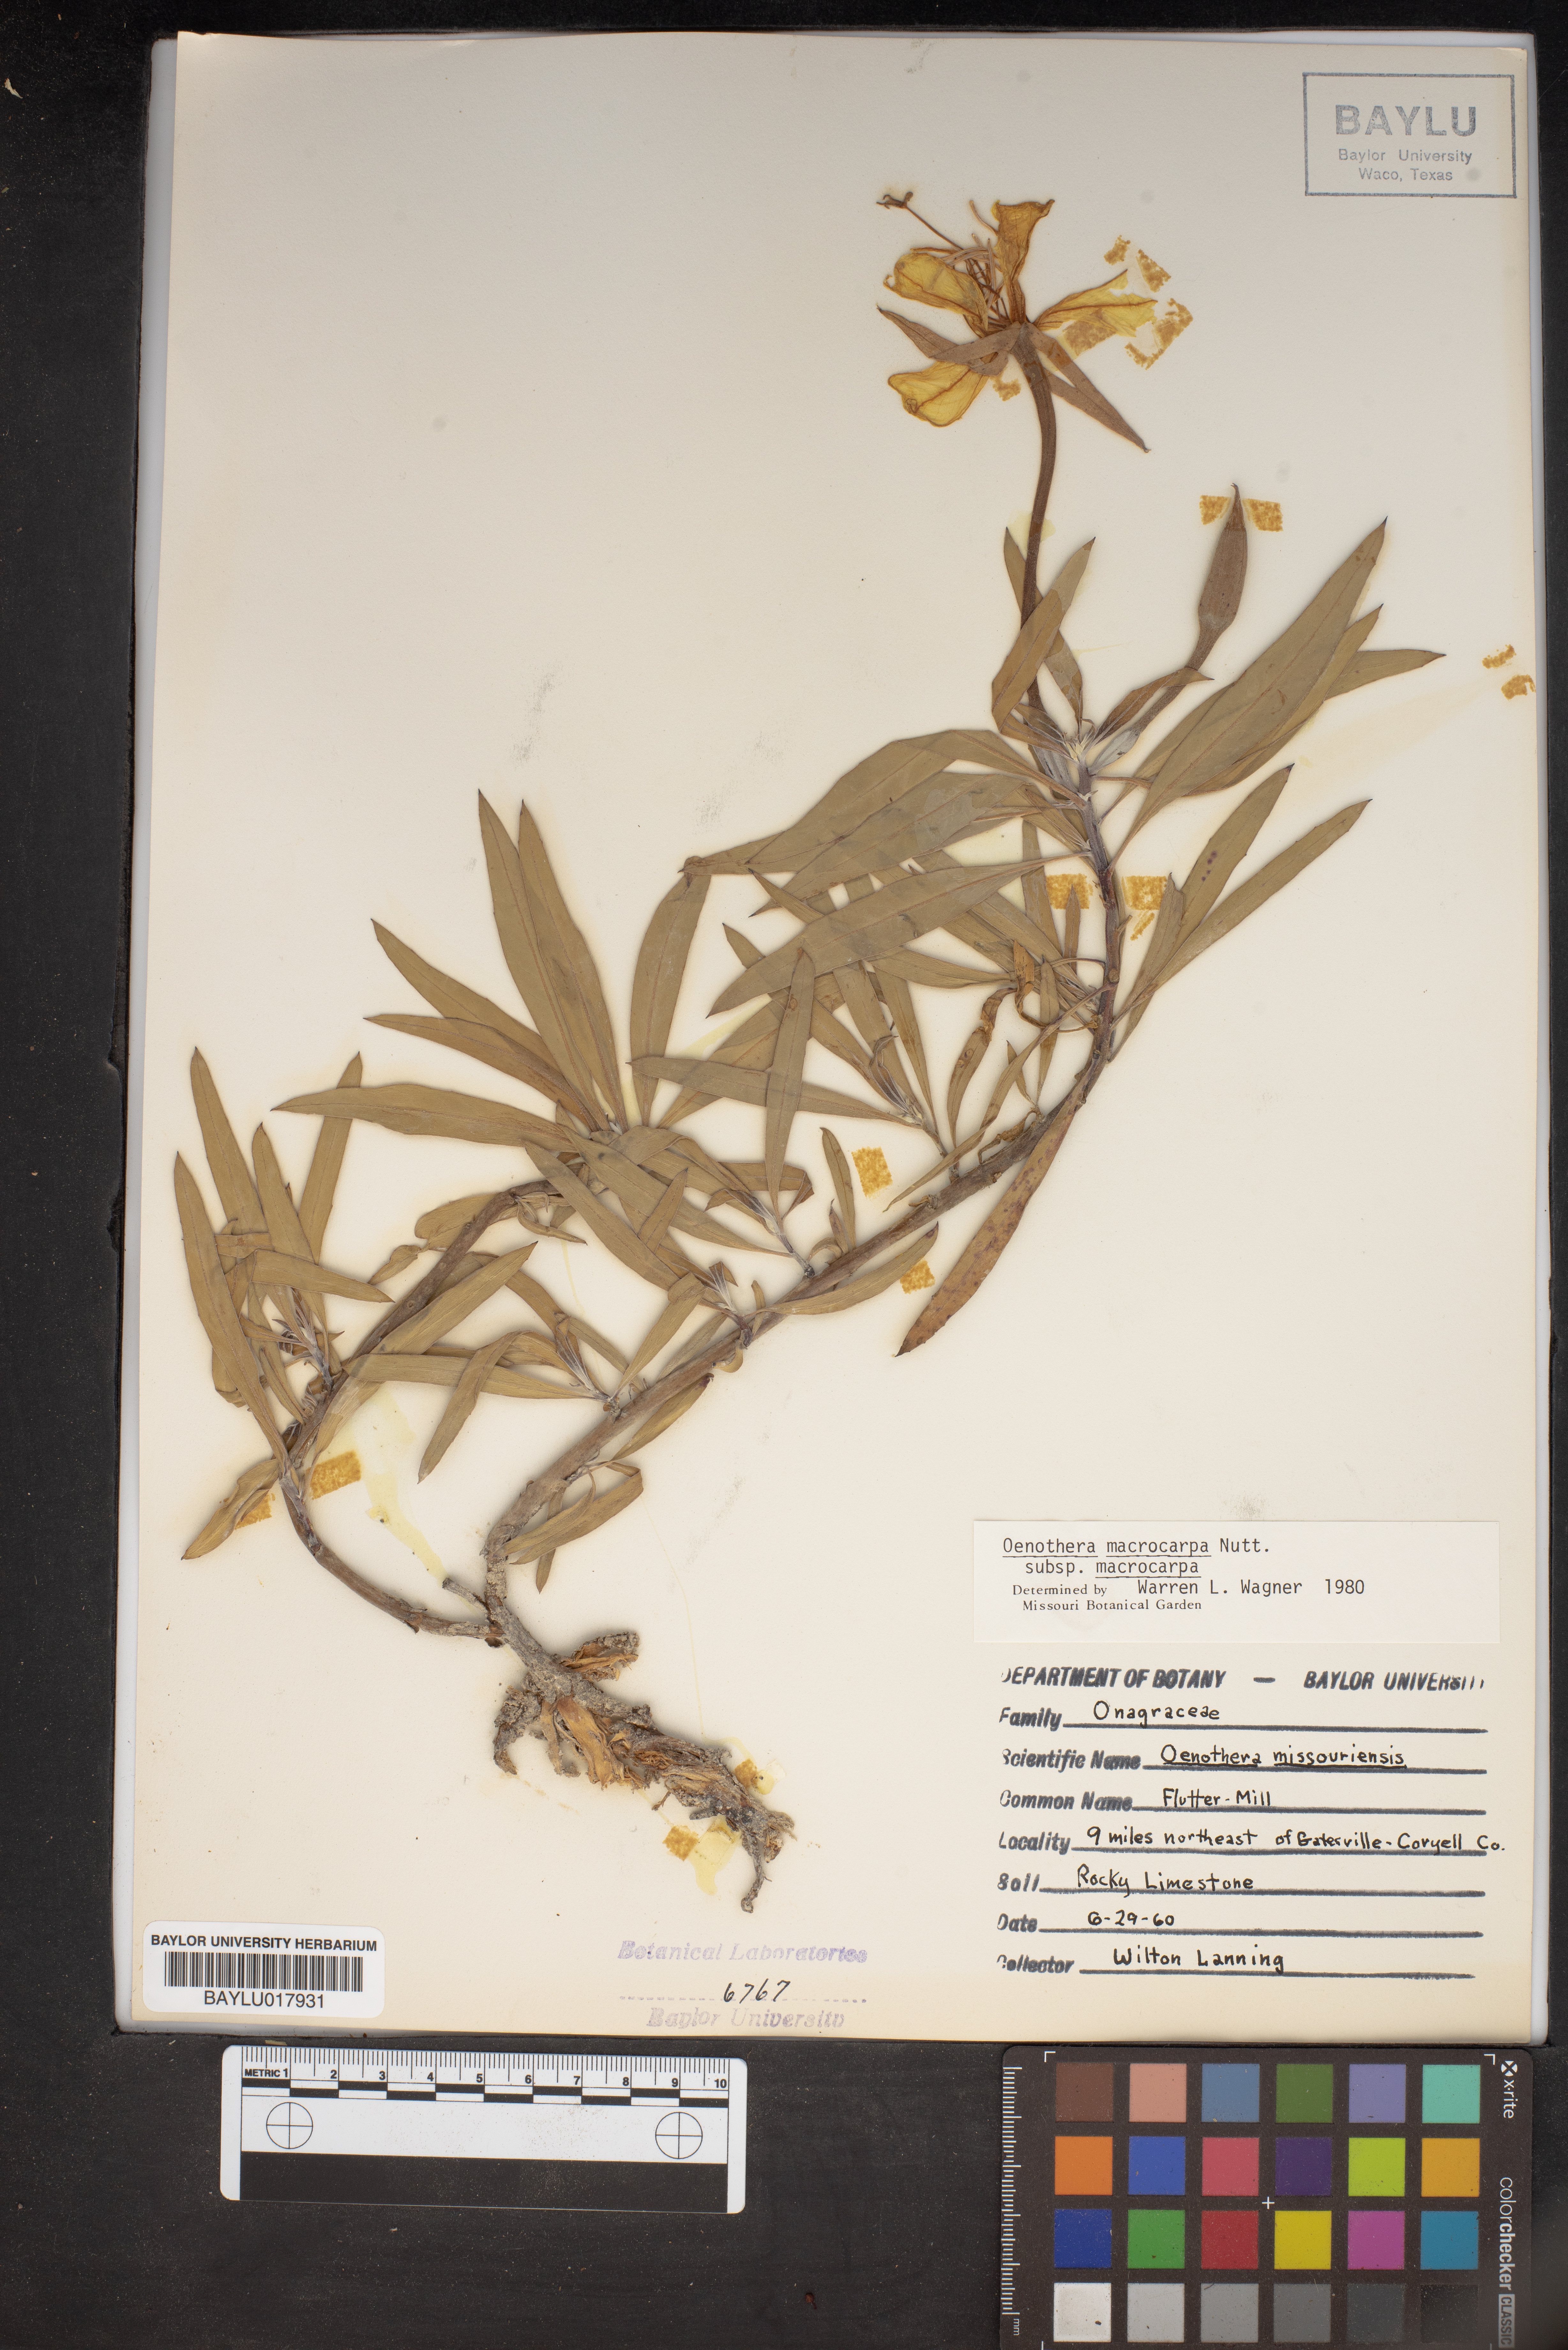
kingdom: Plantae
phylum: Tracheophyta
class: Magnoliopsida
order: Myrtales
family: Onagraceae
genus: Oenothera
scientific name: Oenothera macrocarpa
